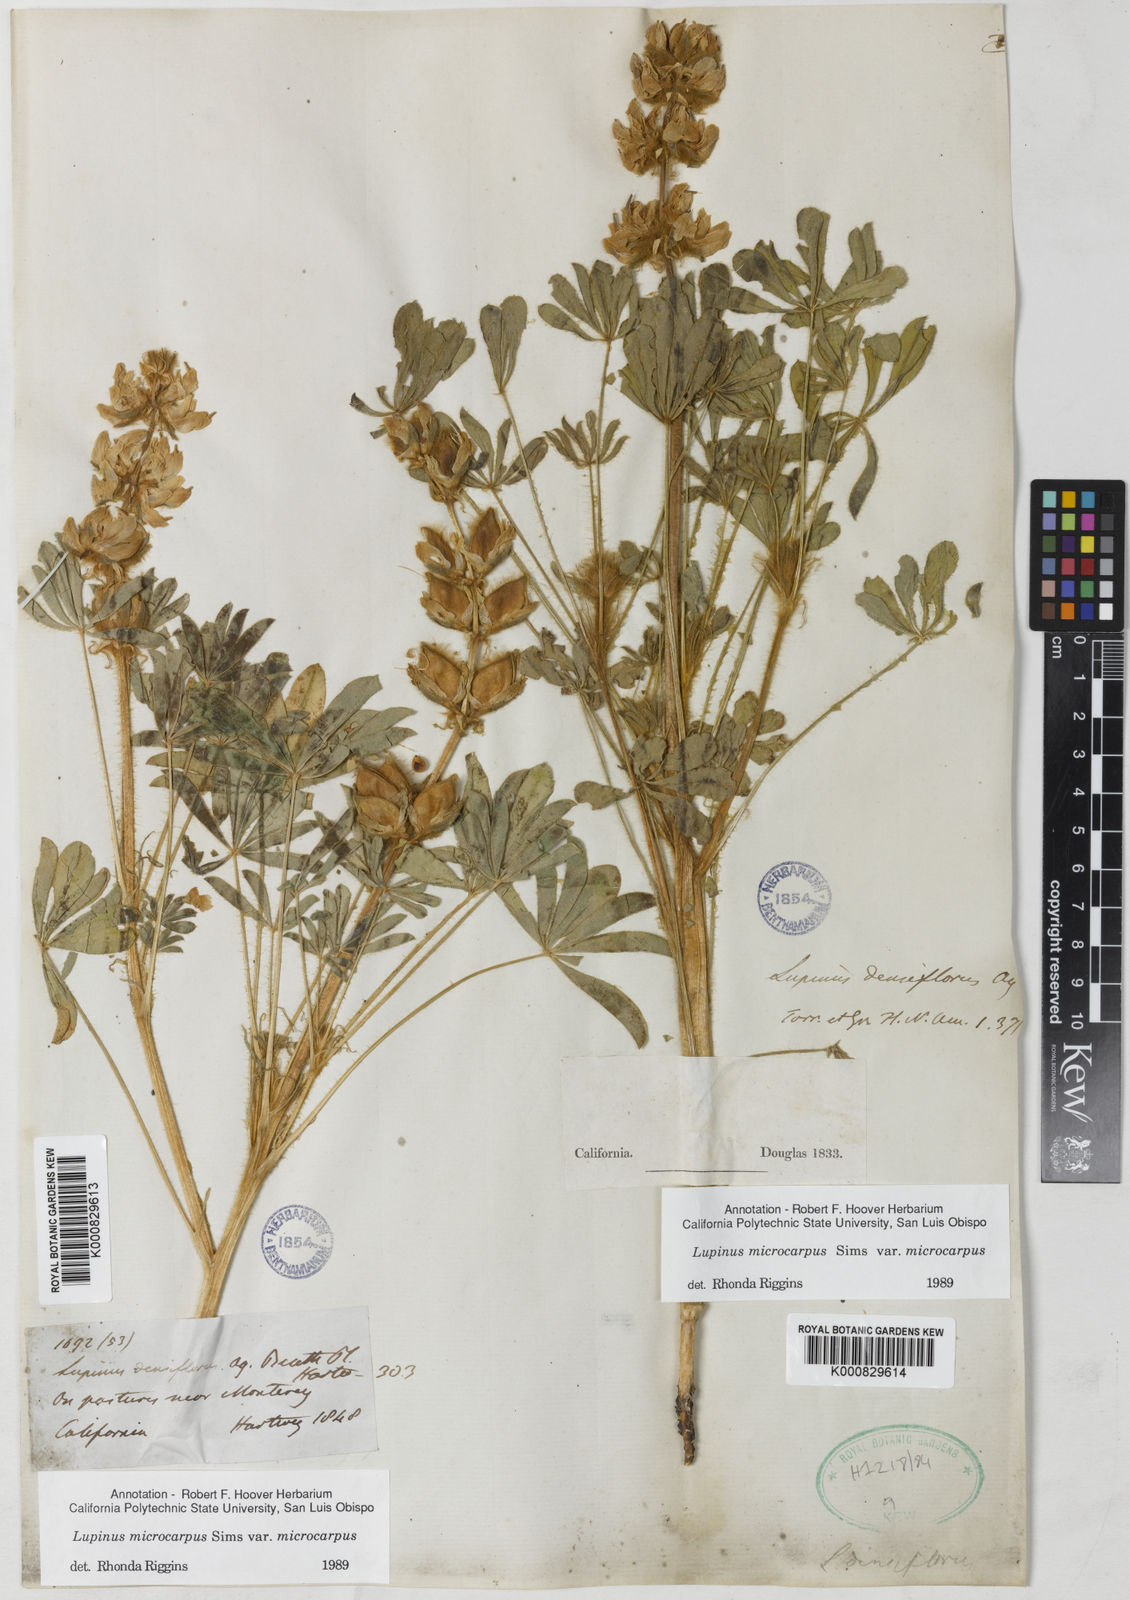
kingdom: Plantae
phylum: Tracheophyta
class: Magnoliopsida
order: Fabales
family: Fabaceae
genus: Lupinus
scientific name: Lupinus densiflorus
